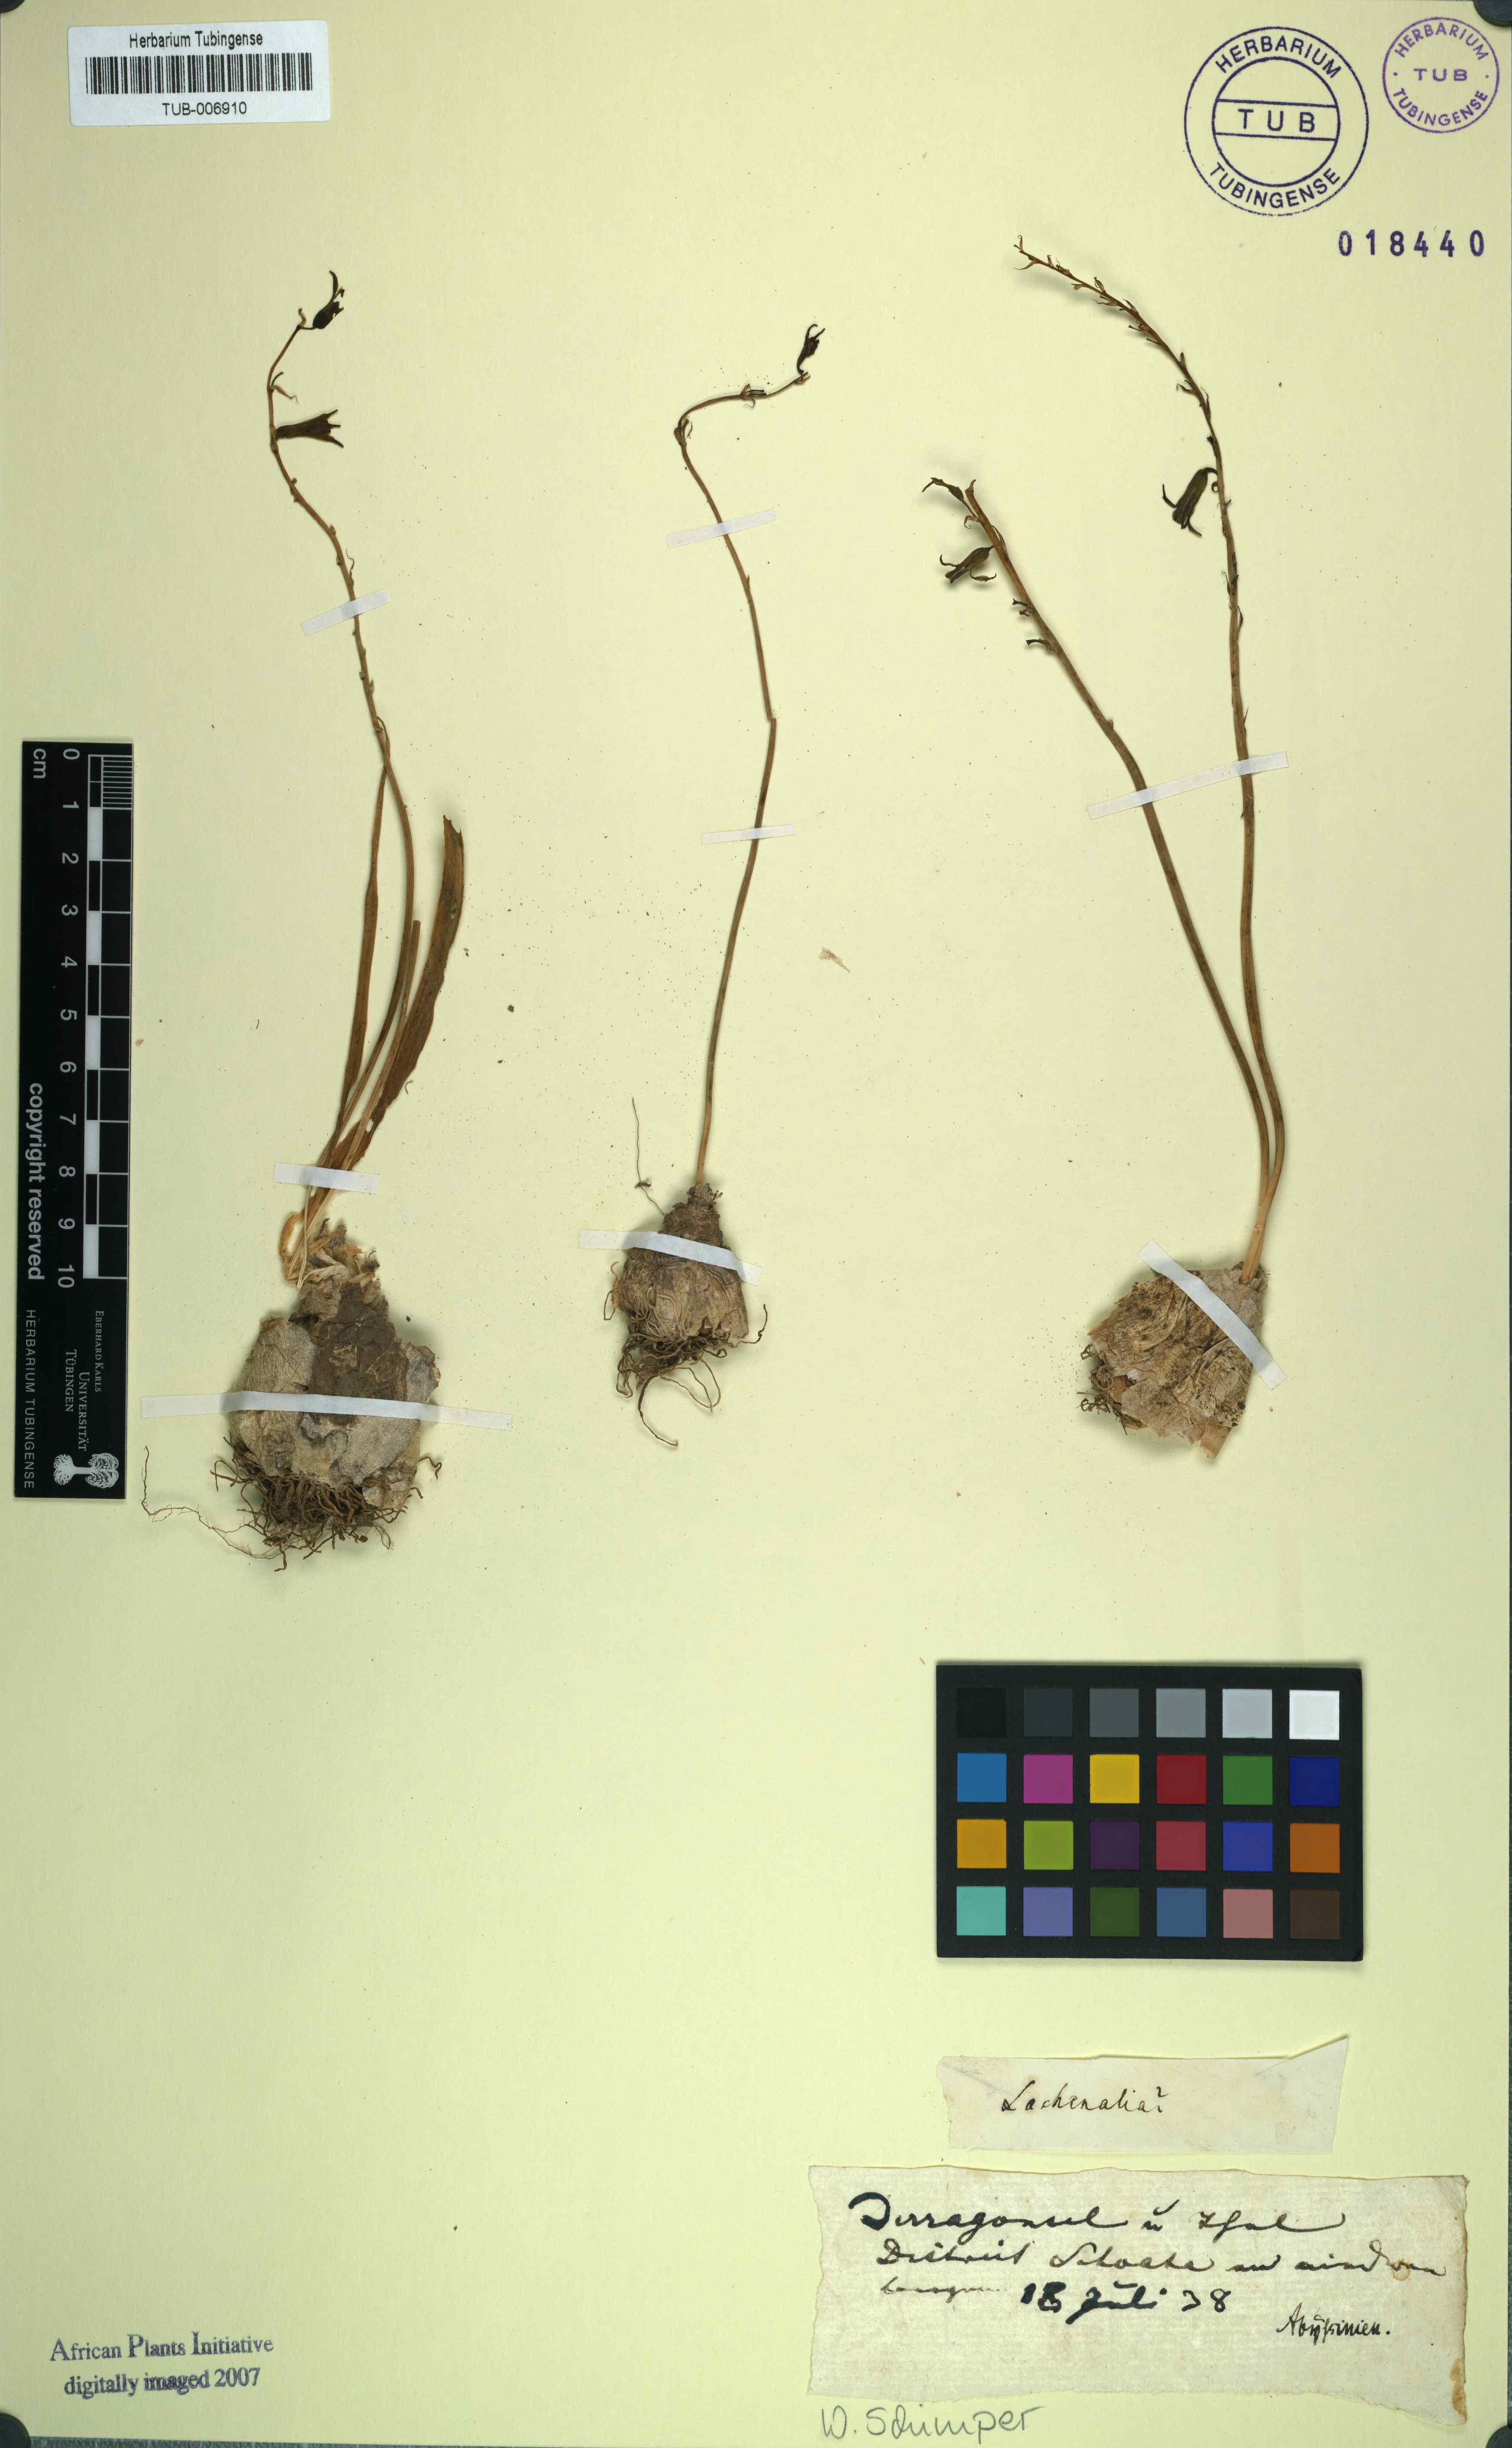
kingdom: Plantae
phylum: Tracheophyta
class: Liliopsida
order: Asparagales
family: Asparagaceae
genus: Lachenalia
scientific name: Lachenalia
